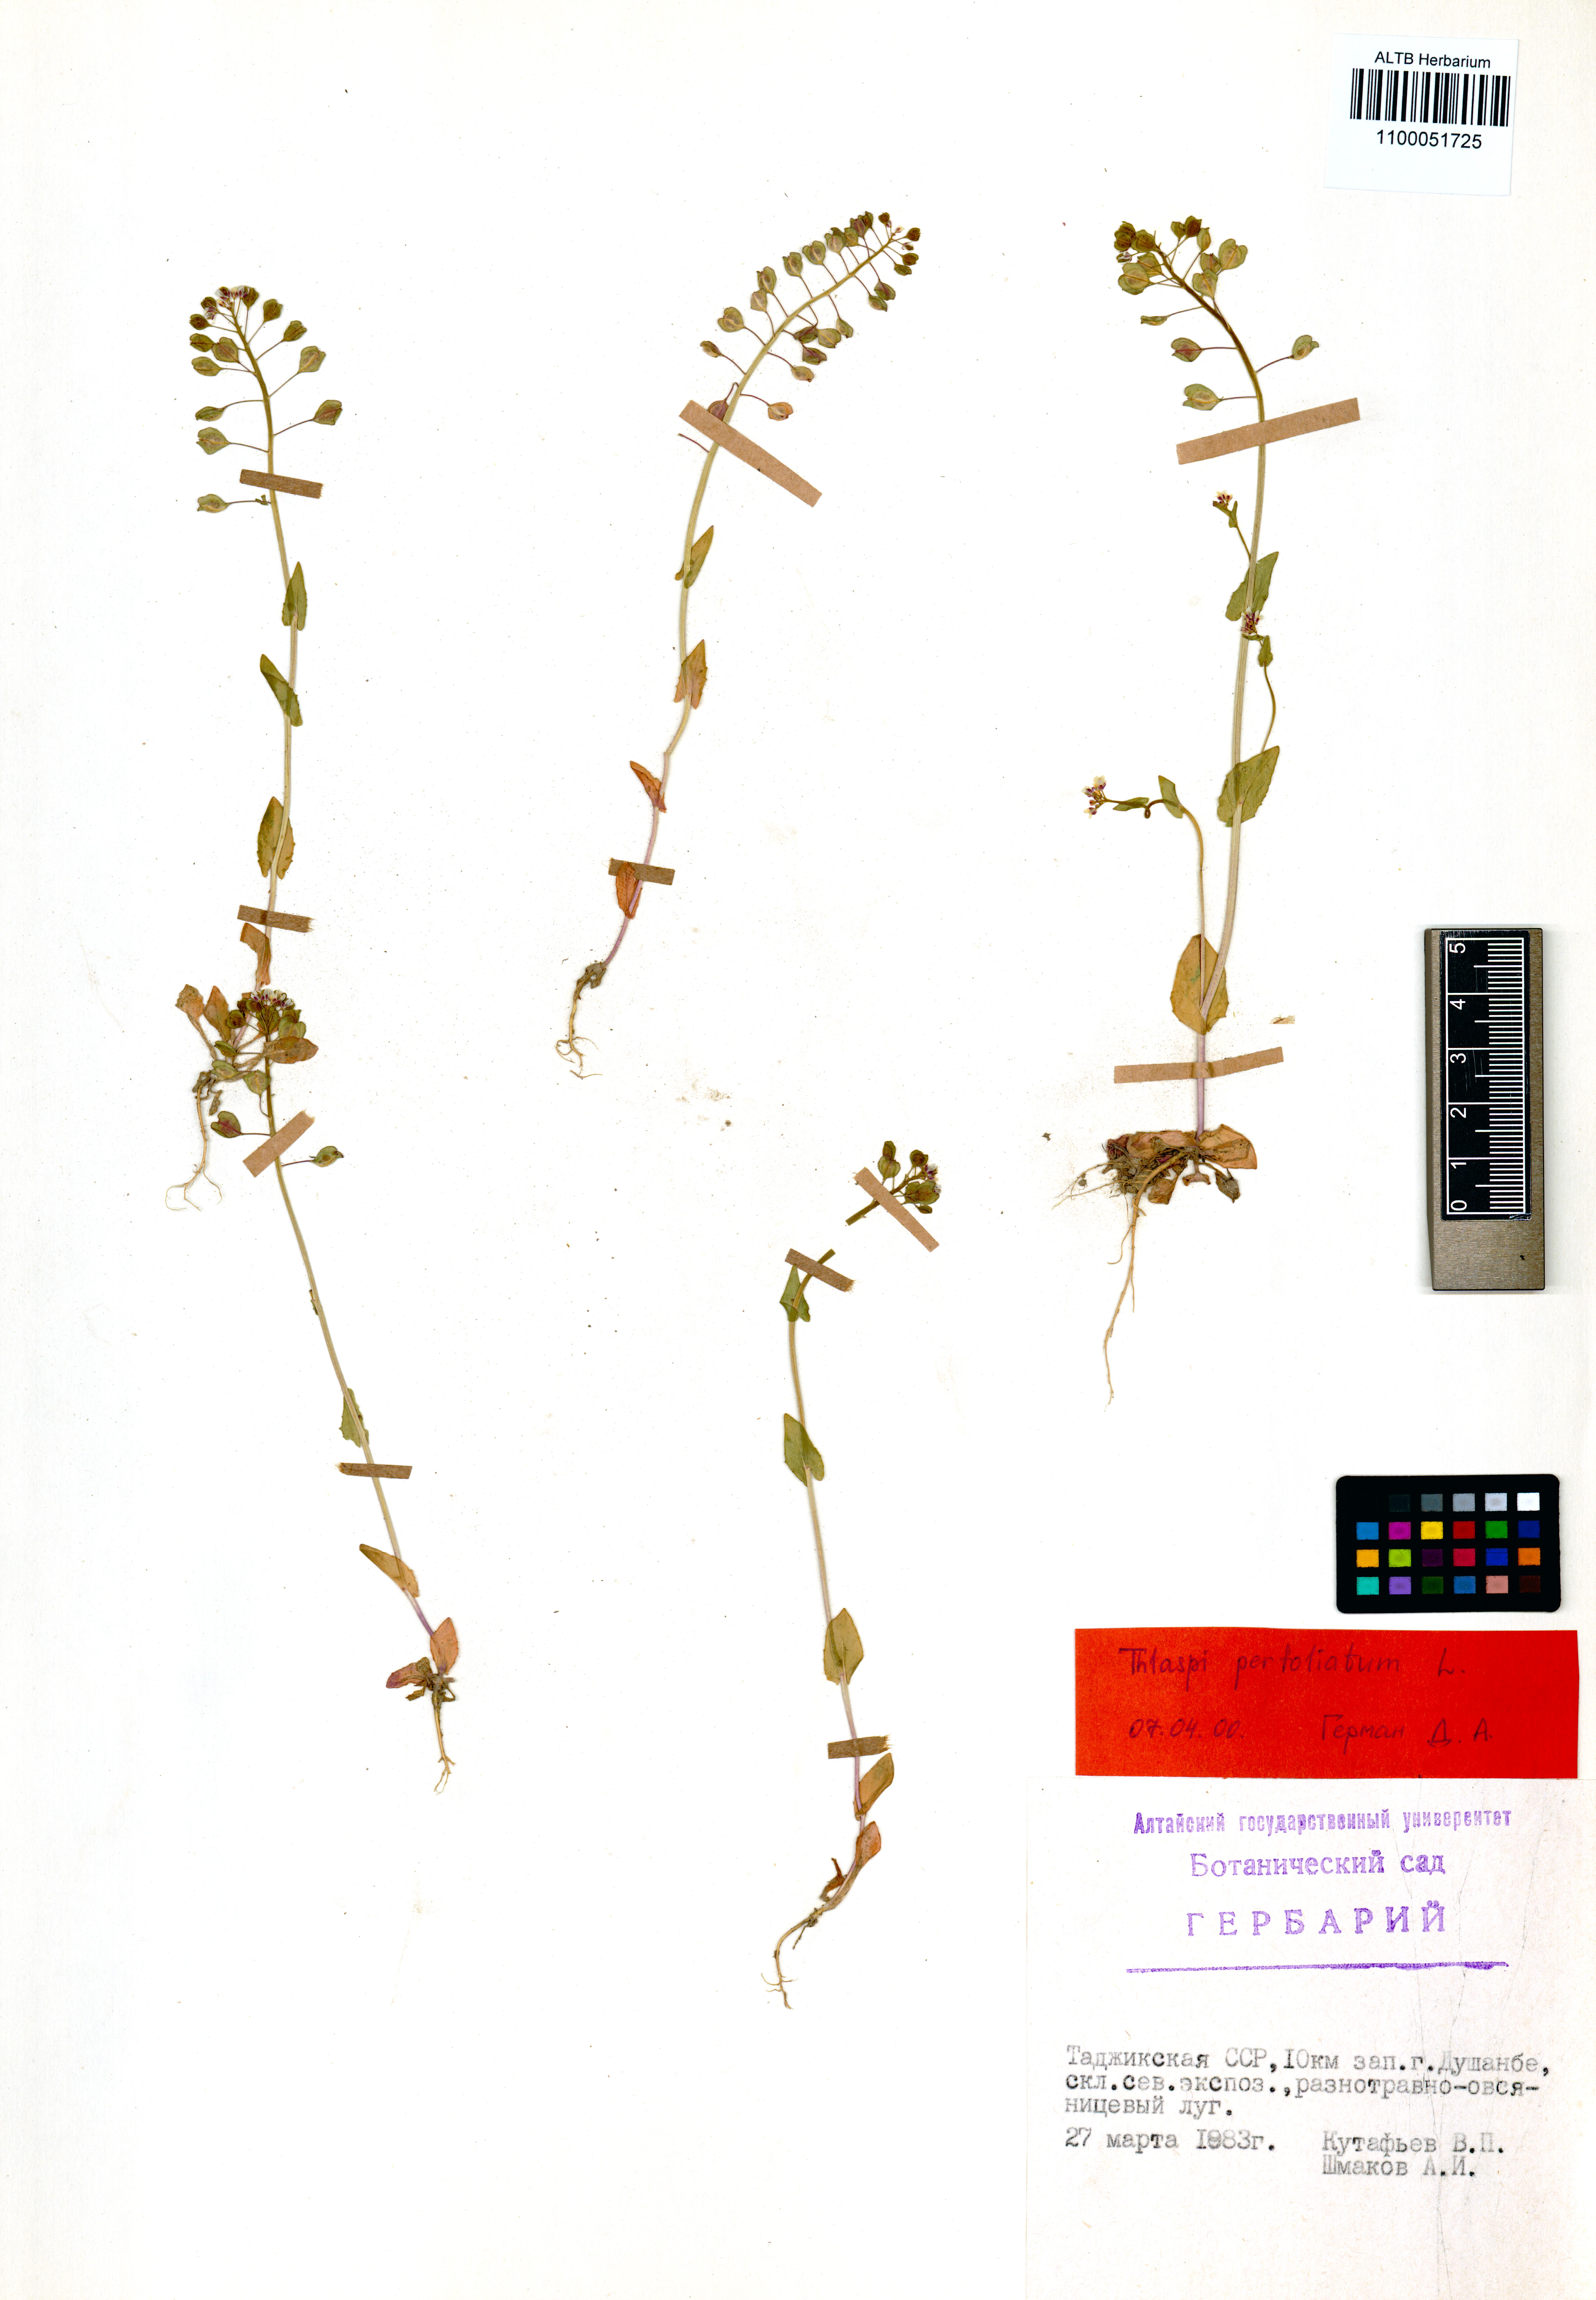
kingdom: Plantae
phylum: Tracheophyta
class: Magnoliopsida
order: Brassicales
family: Brassicaceae
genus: Noccaea
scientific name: Noccaea perfoliata
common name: Perfoliate pennycress
